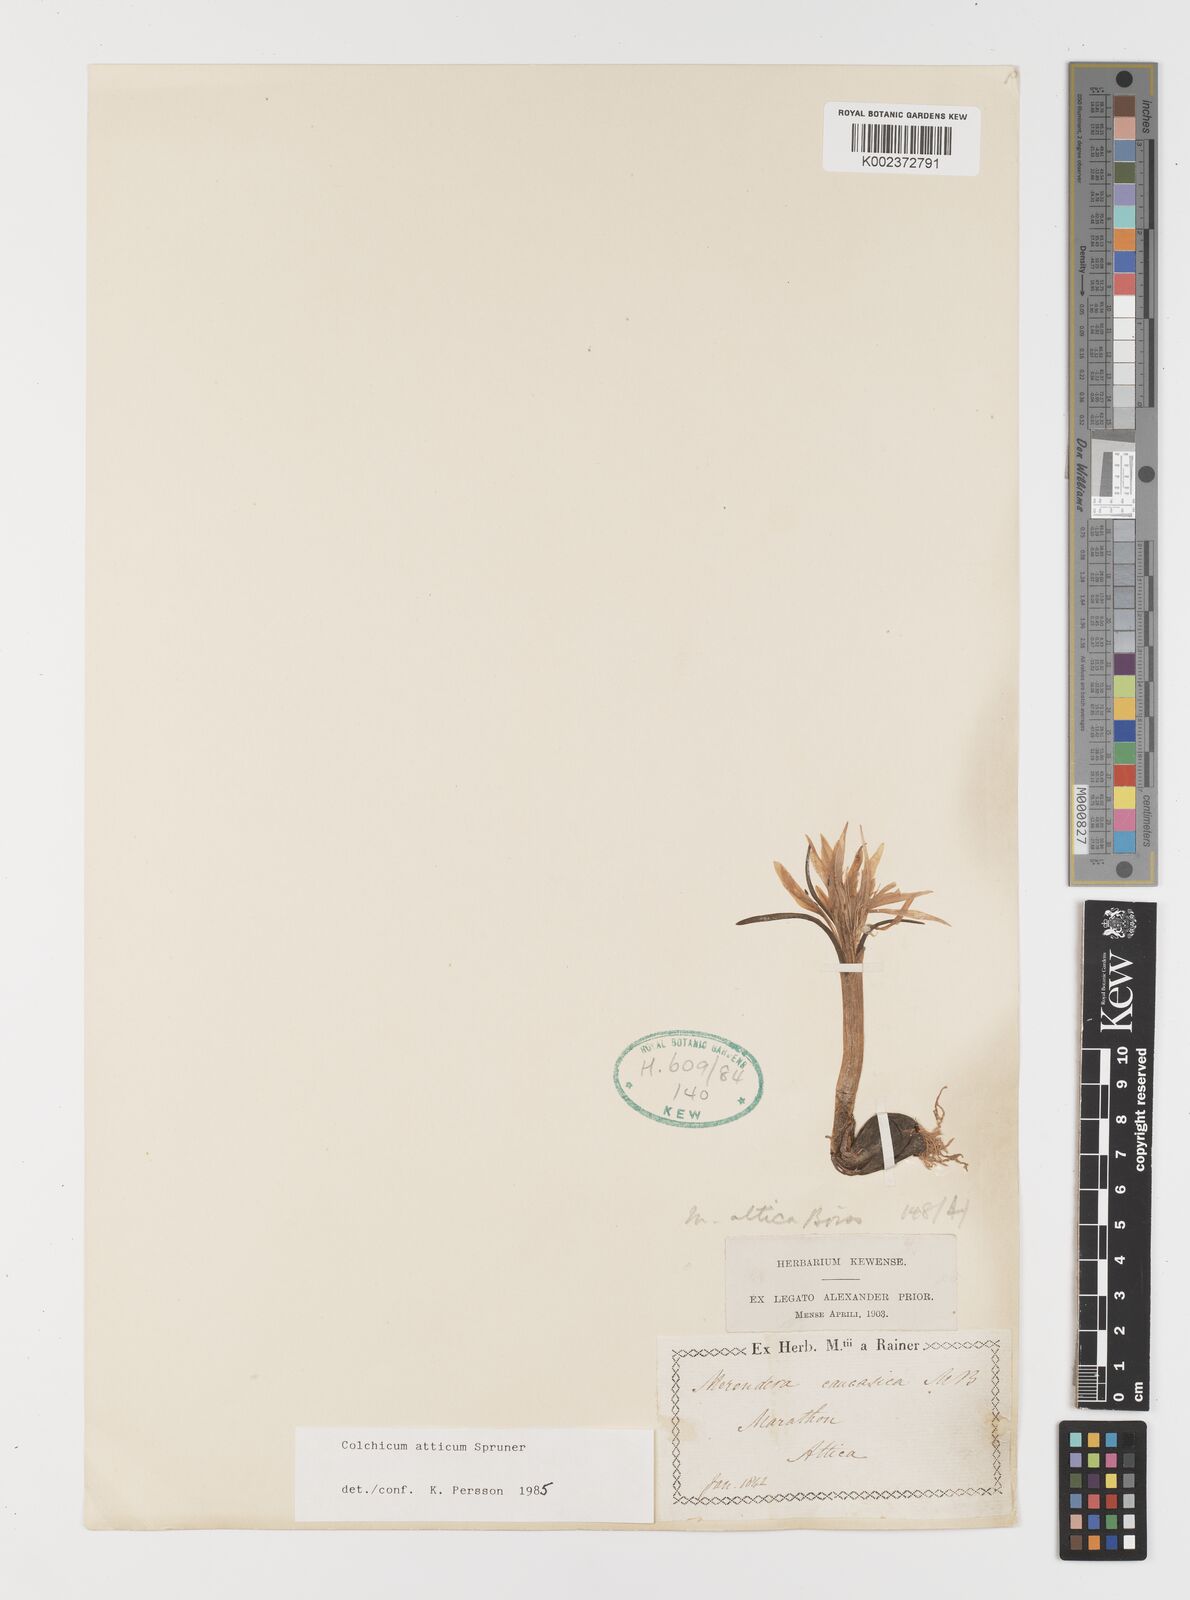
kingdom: Plantae
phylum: Tracheophyta
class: Liliopsida
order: Liliales
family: Colchicaceae
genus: Colchicum
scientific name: Colchicum atticum
